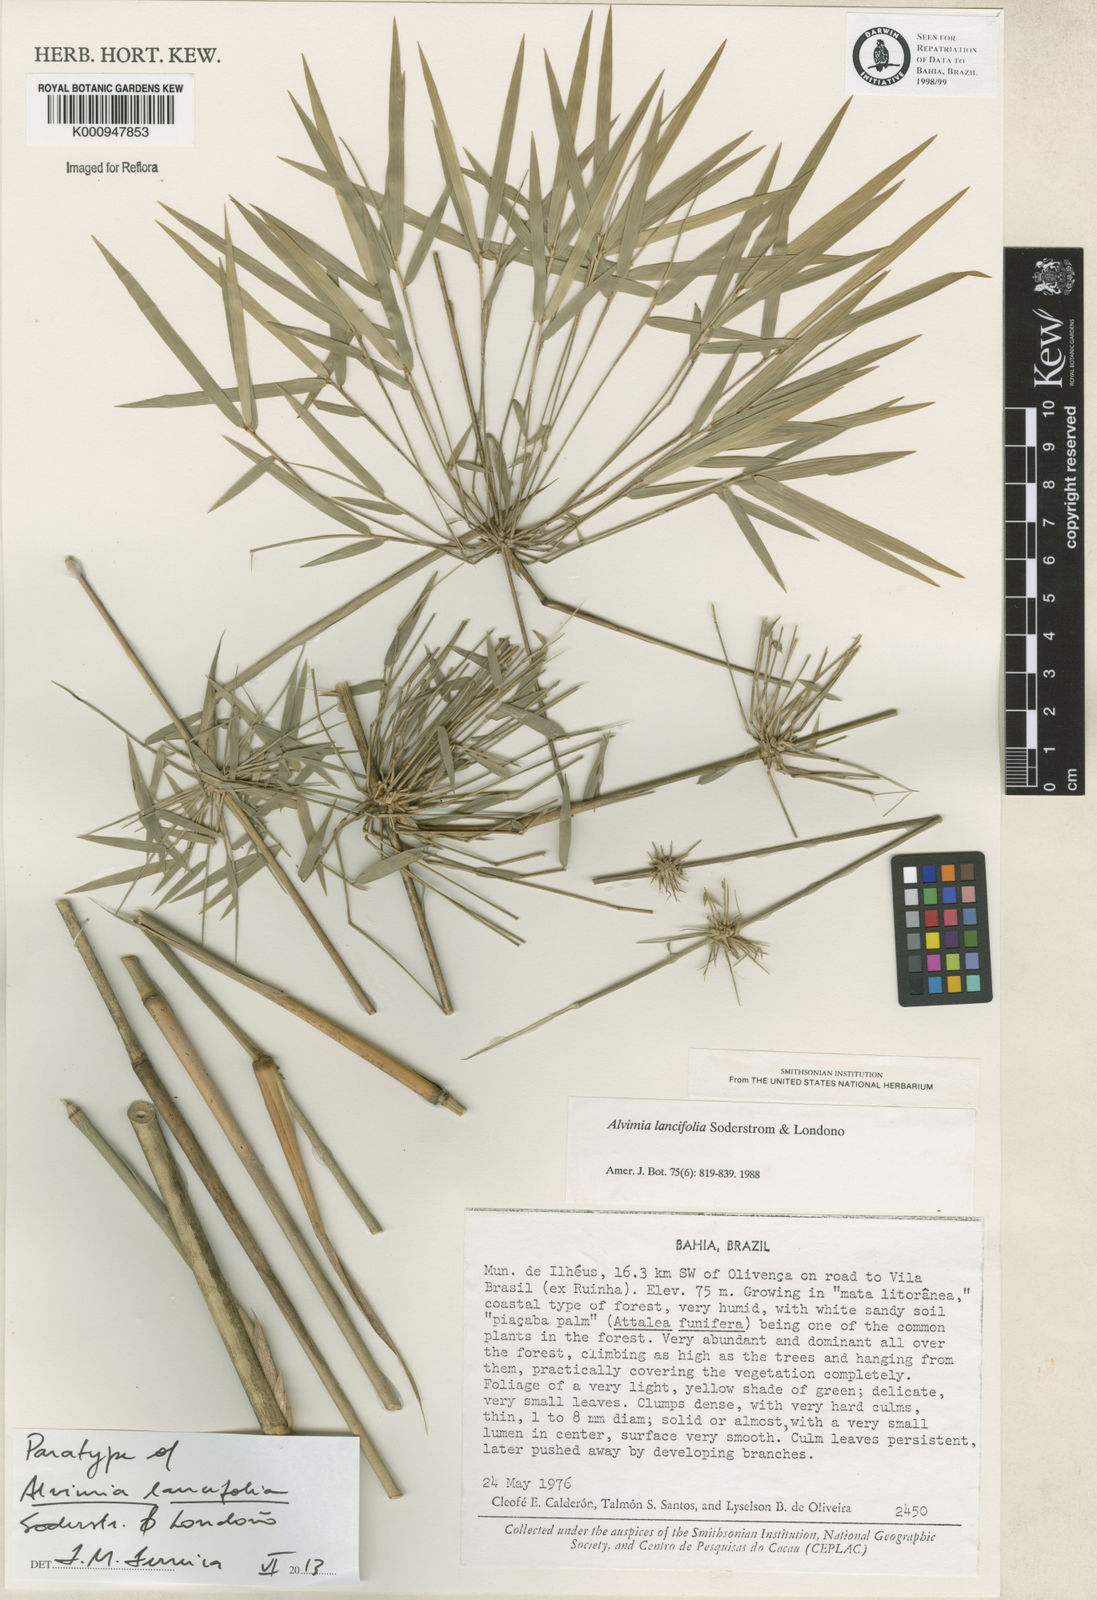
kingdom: Plantae
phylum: Tracheophyta
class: Liliopsida
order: Poales
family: Poaceae
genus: Alvimia
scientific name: Alvimia
